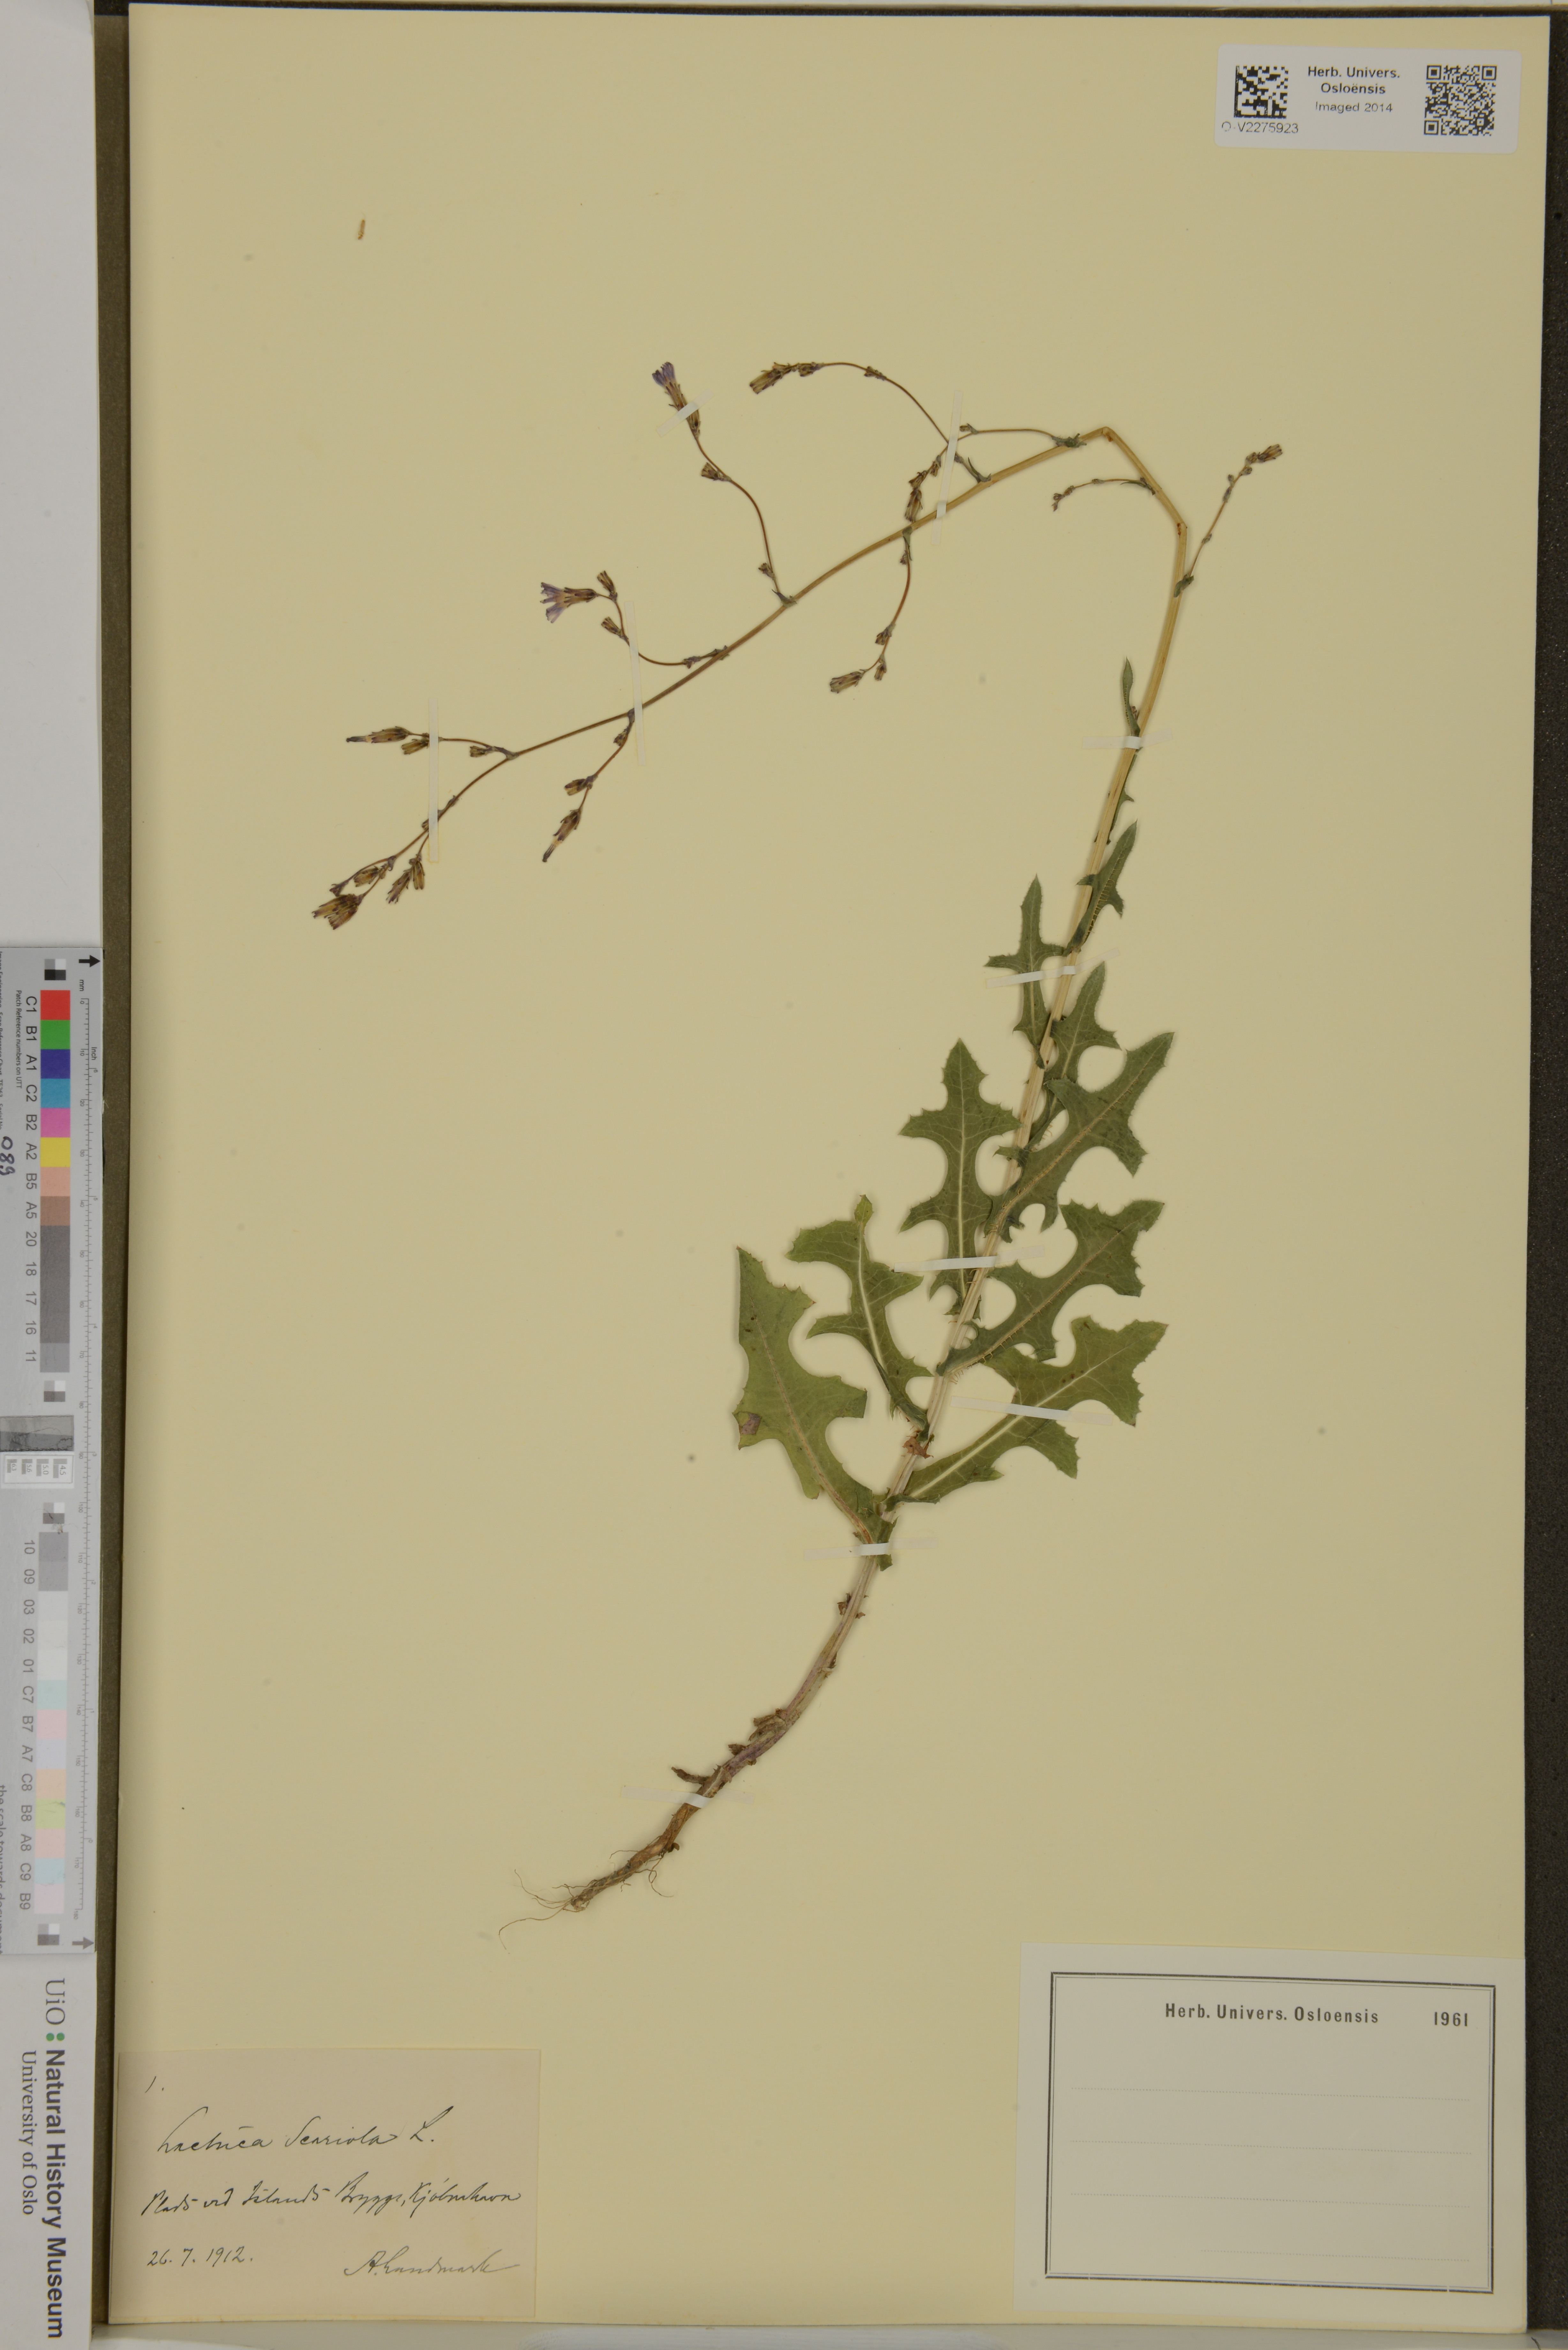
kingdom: Plantae
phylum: Tracheophyta
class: Magnoliopsida
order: Asterales
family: Asteraceae
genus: Lactuca
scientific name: Lactuca serriola
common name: Prickly lettuce
